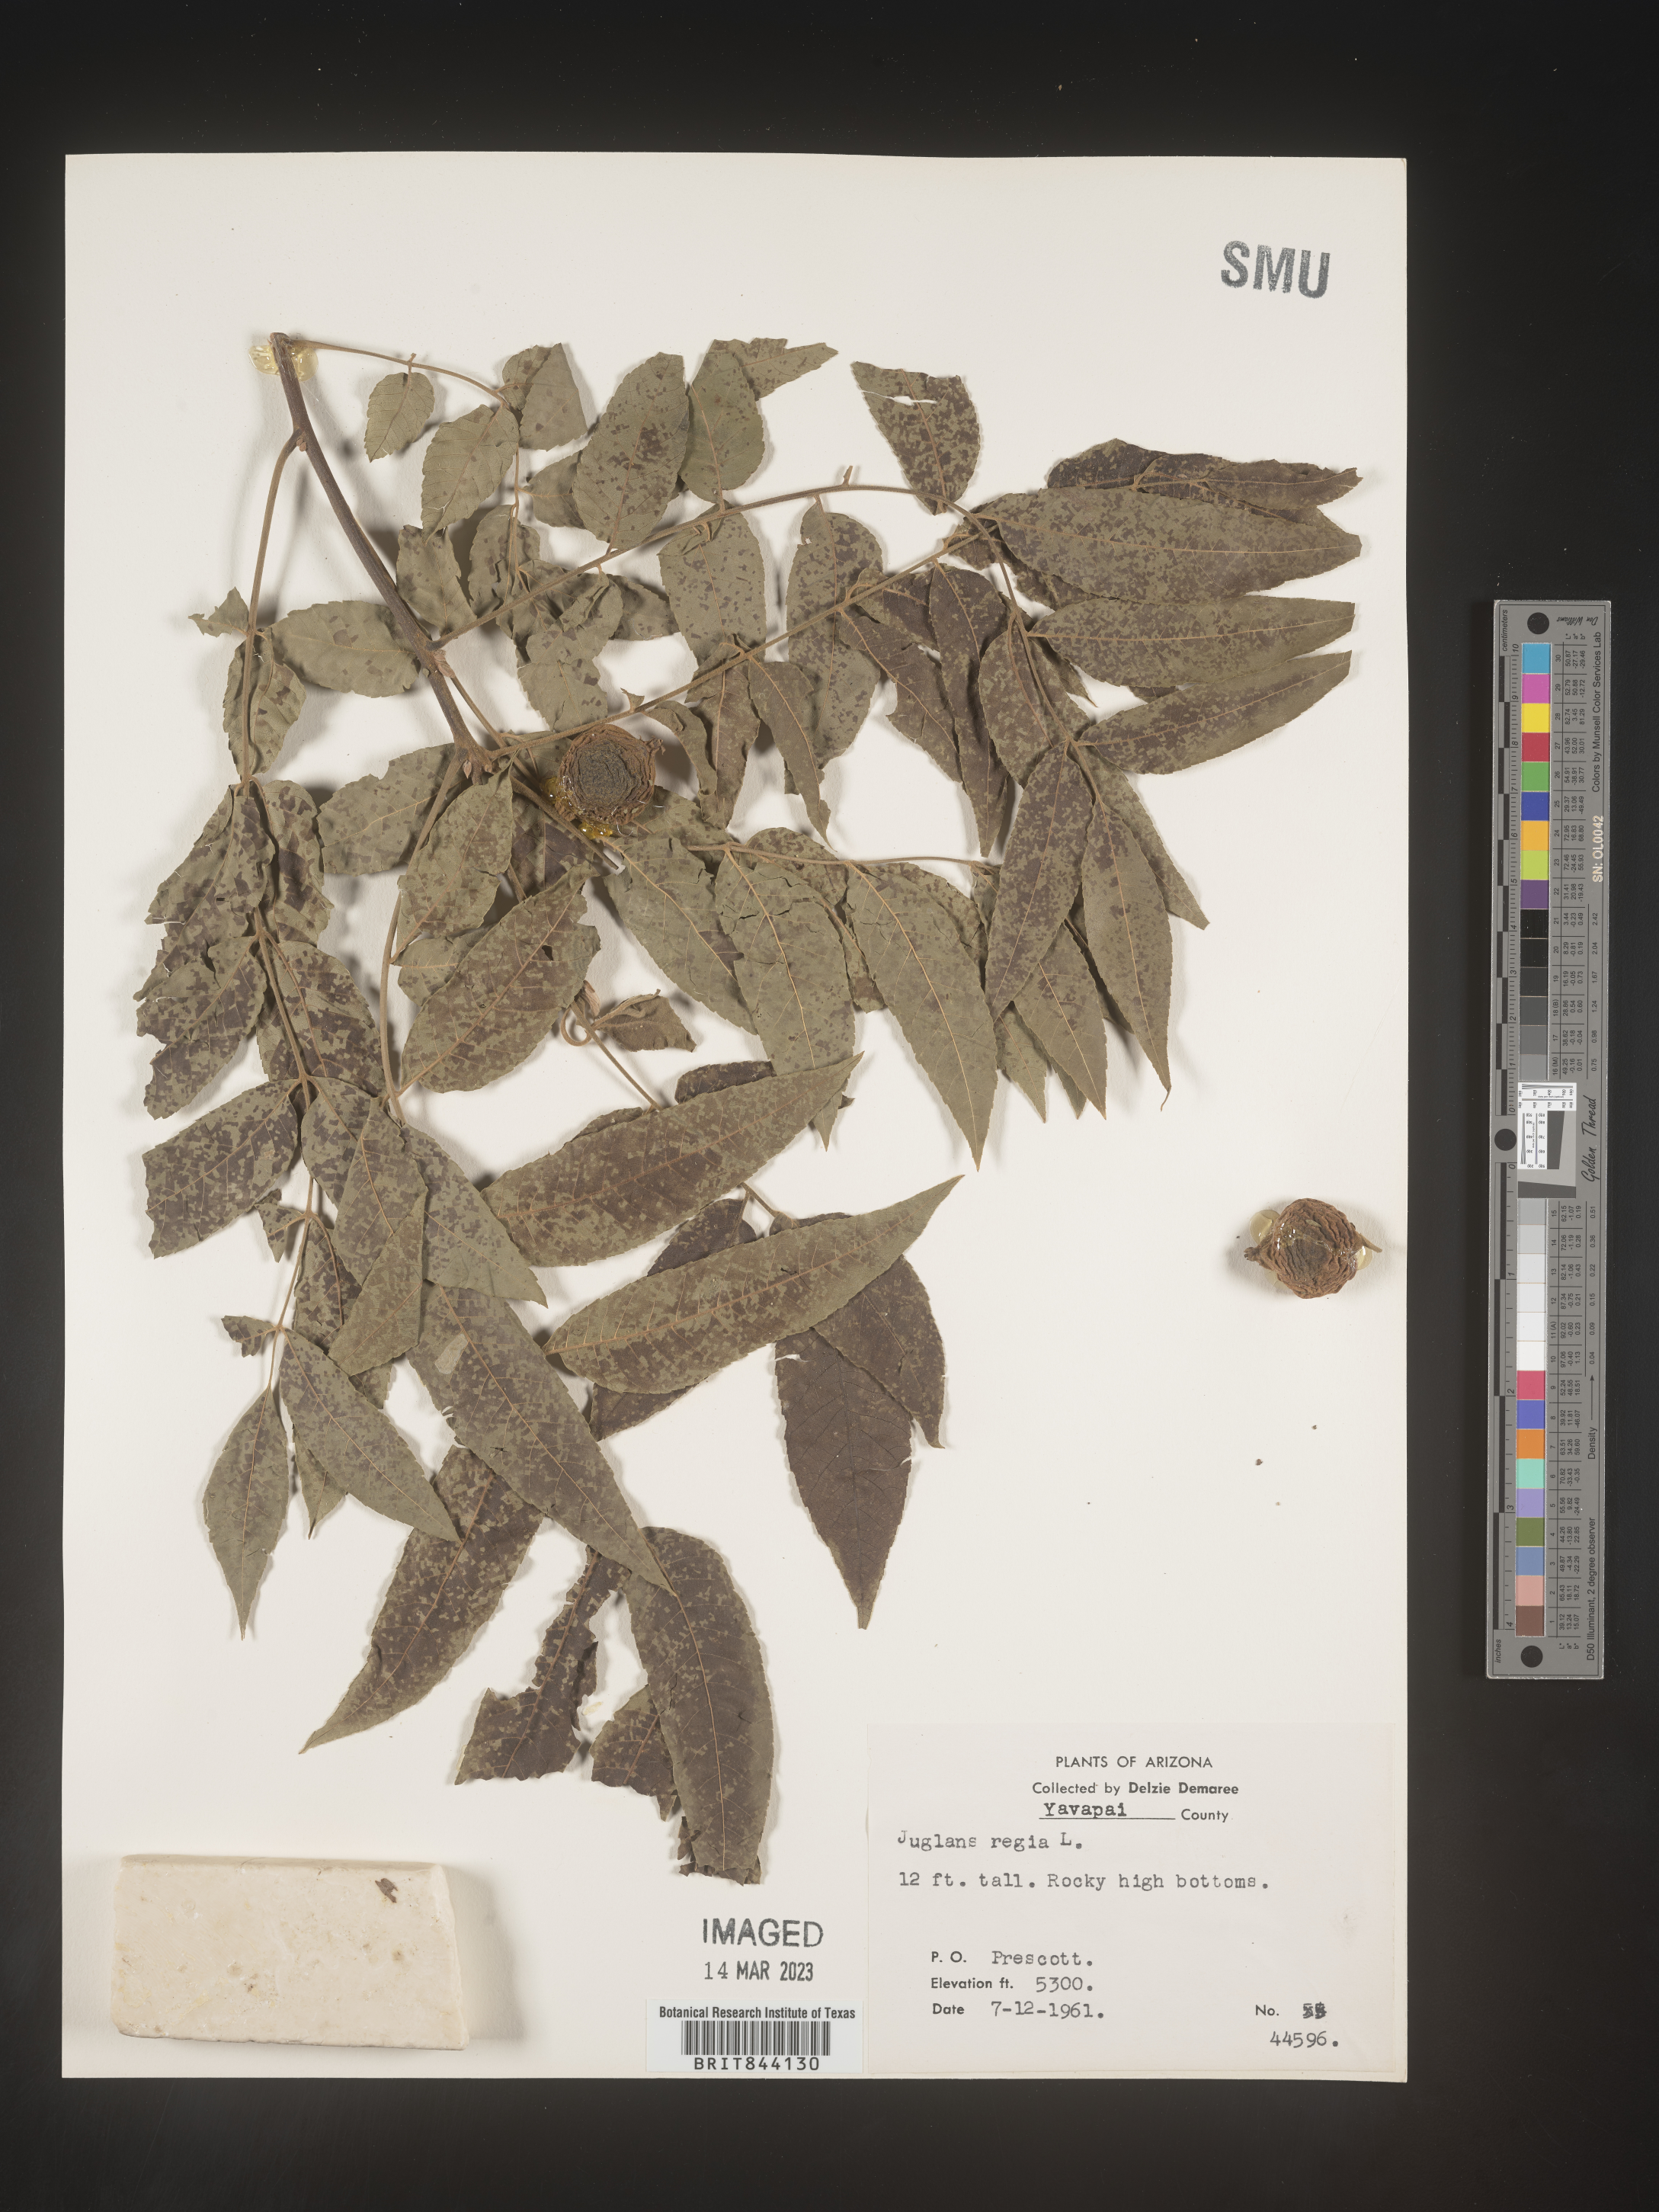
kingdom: Plantae
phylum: Tracheophyta
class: Magnoliopsida
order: Fagales
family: Juglandaceae
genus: Juglans
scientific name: Juglans
